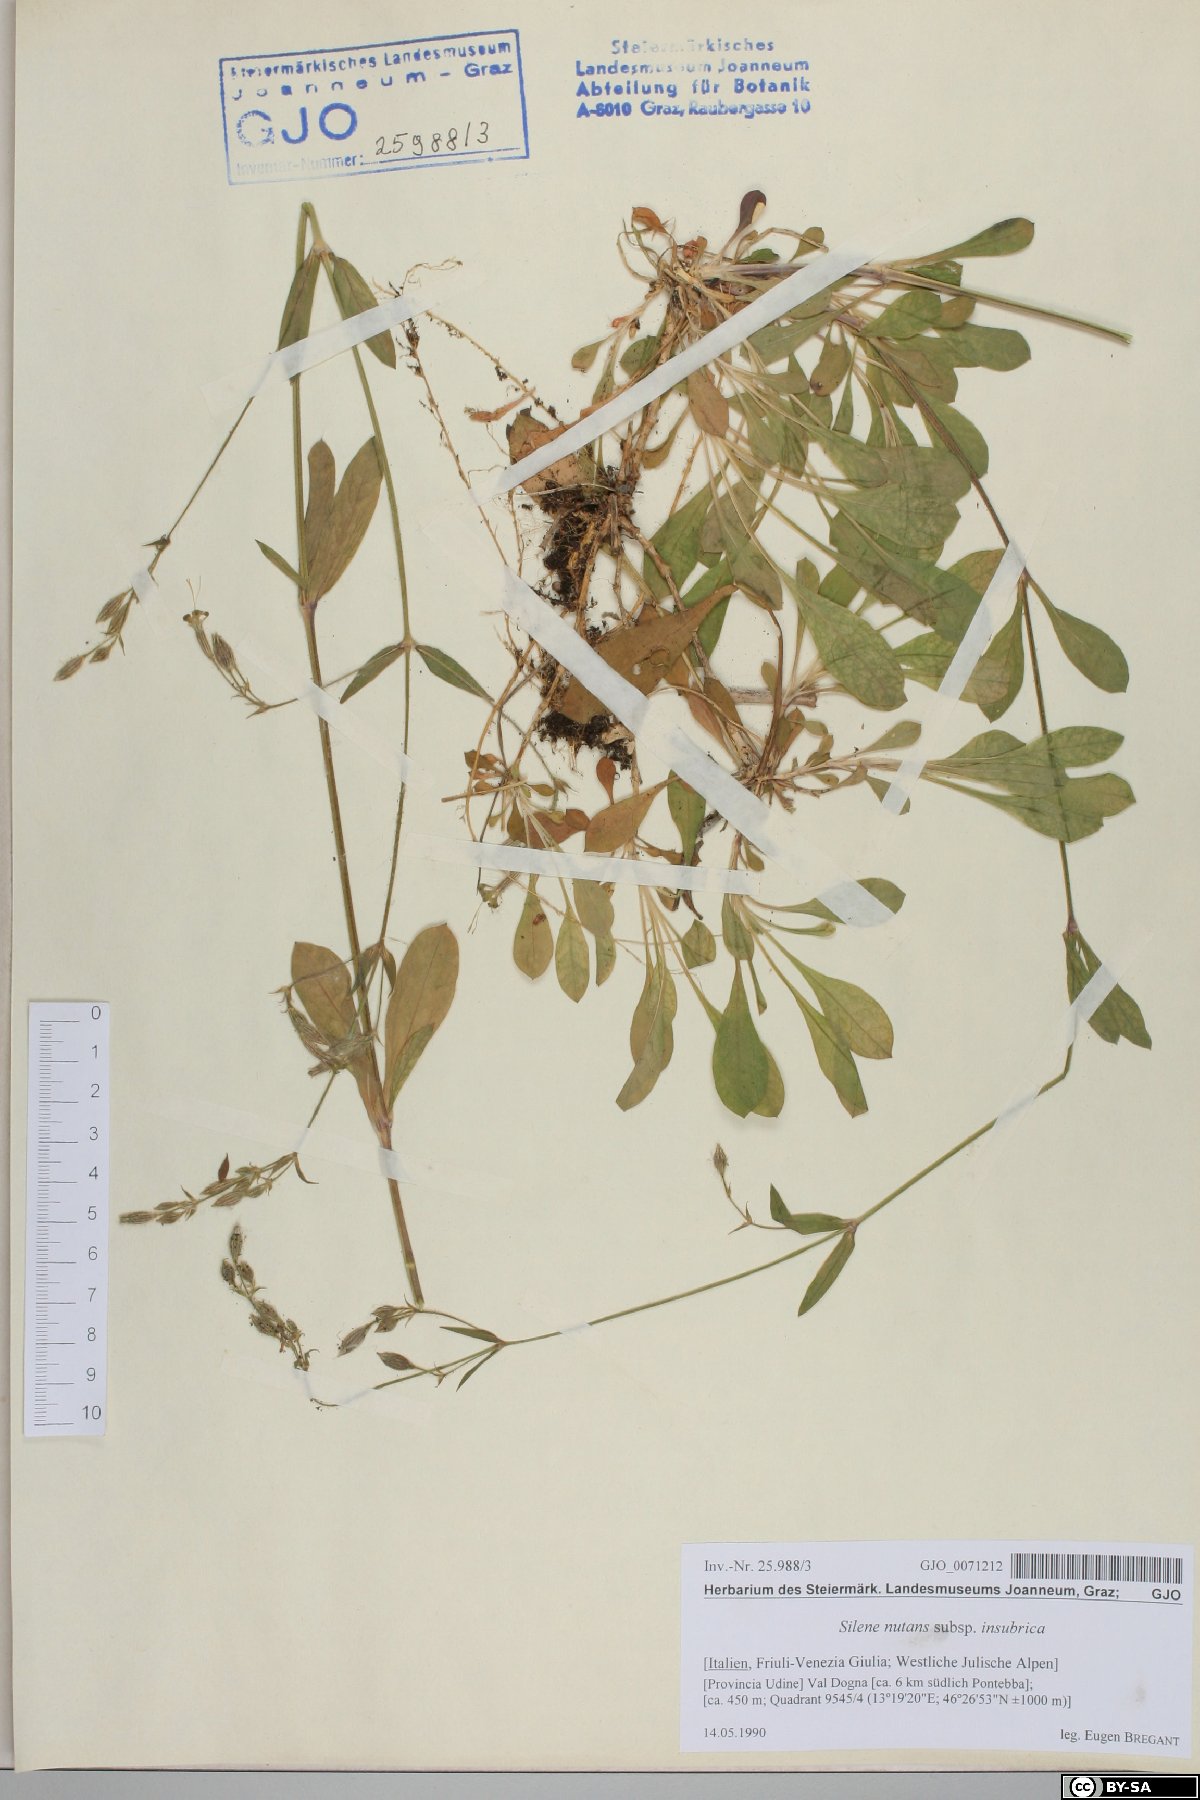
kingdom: Plantae
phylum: Tracheophyta
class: Magnoliopsida
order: Caryophyllales
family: Caryophyllaceae
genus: Silene
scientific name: Silene nutans
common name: Nottingham catchfly
